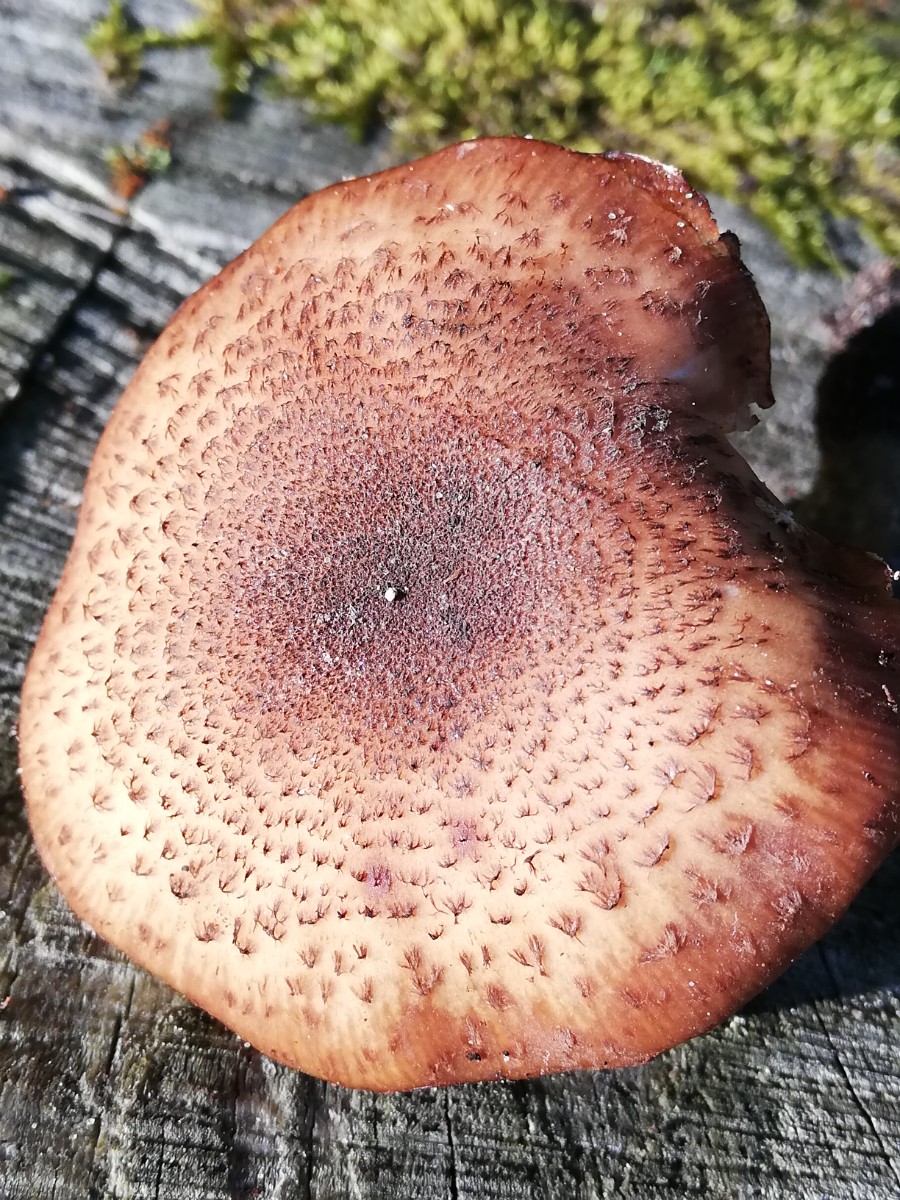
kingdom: Fungi
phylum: Basidiomycota
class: Agaricomycetes
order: Agaricales
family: Physalacriaceae
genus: Armillaria
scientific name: Armillaria ostoyae
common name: mørk honningsvamp
